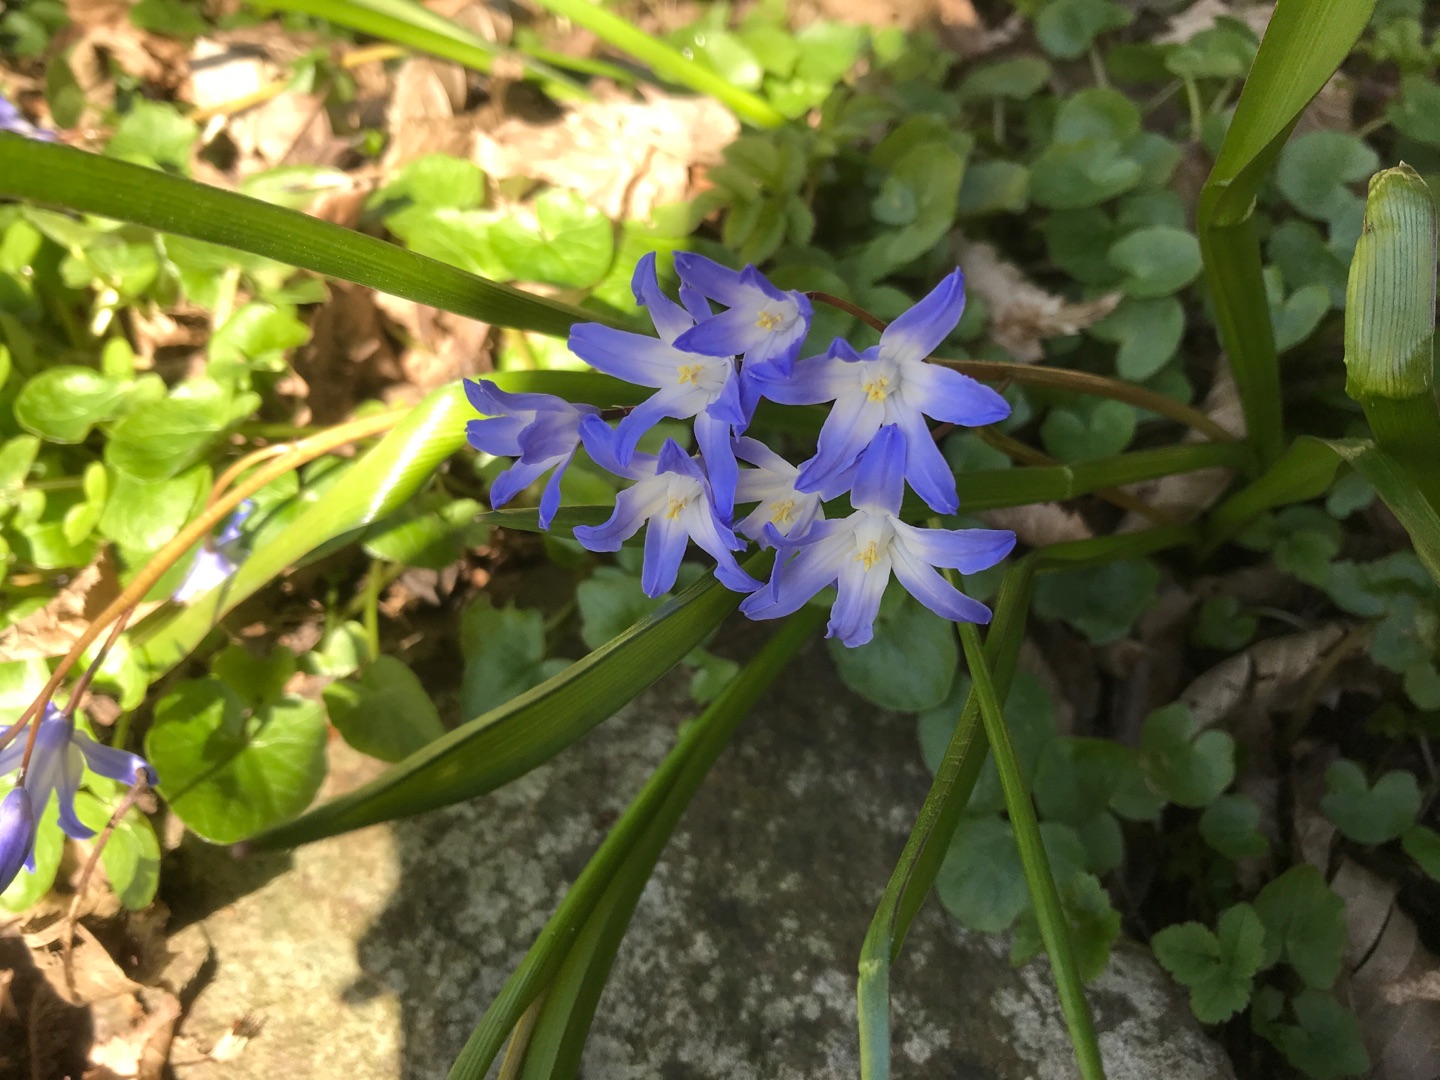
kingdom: Plantae
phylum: Tracheophyta
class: Liliopsida
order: Asparagales
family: Asparagaceae
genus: Scilla
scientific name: Scilla forbesii
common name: Almindelig snepryd
